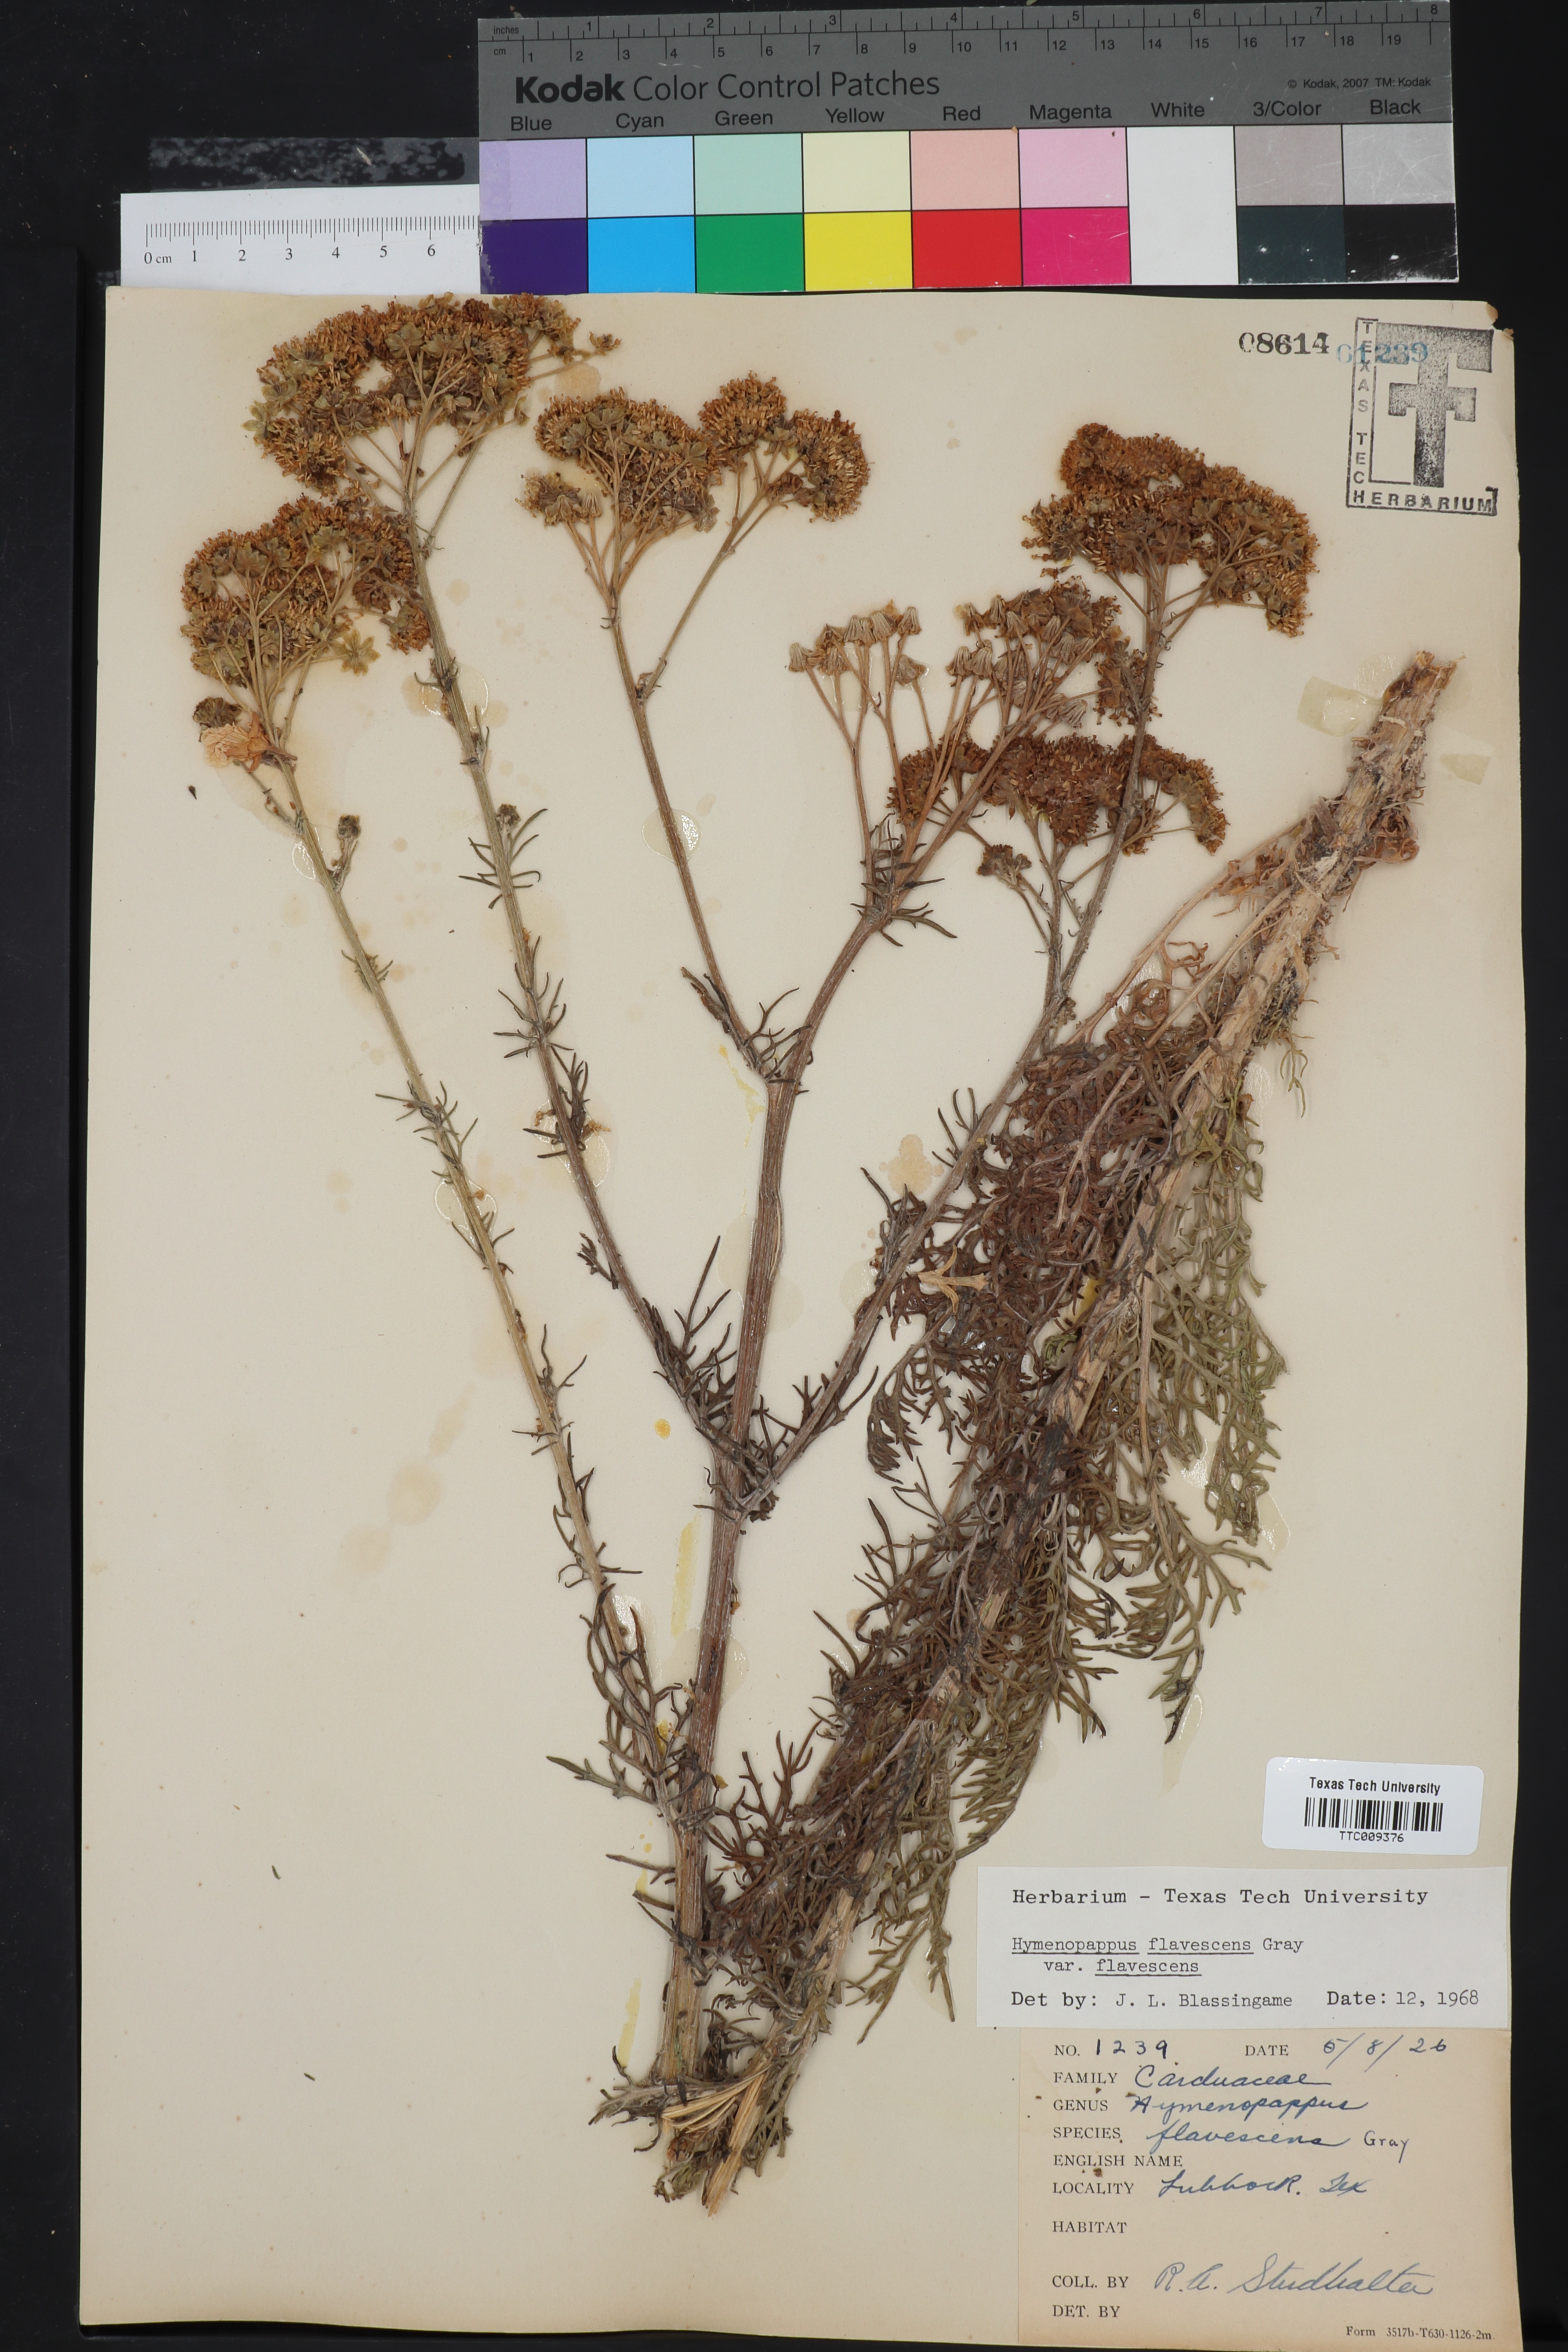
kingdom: Plantae
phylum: Tracheophyta
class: Magnoliopsida
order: Asterales
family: Asteraceae
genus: Hymenopappus
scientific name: Hymenopappus flavescens
